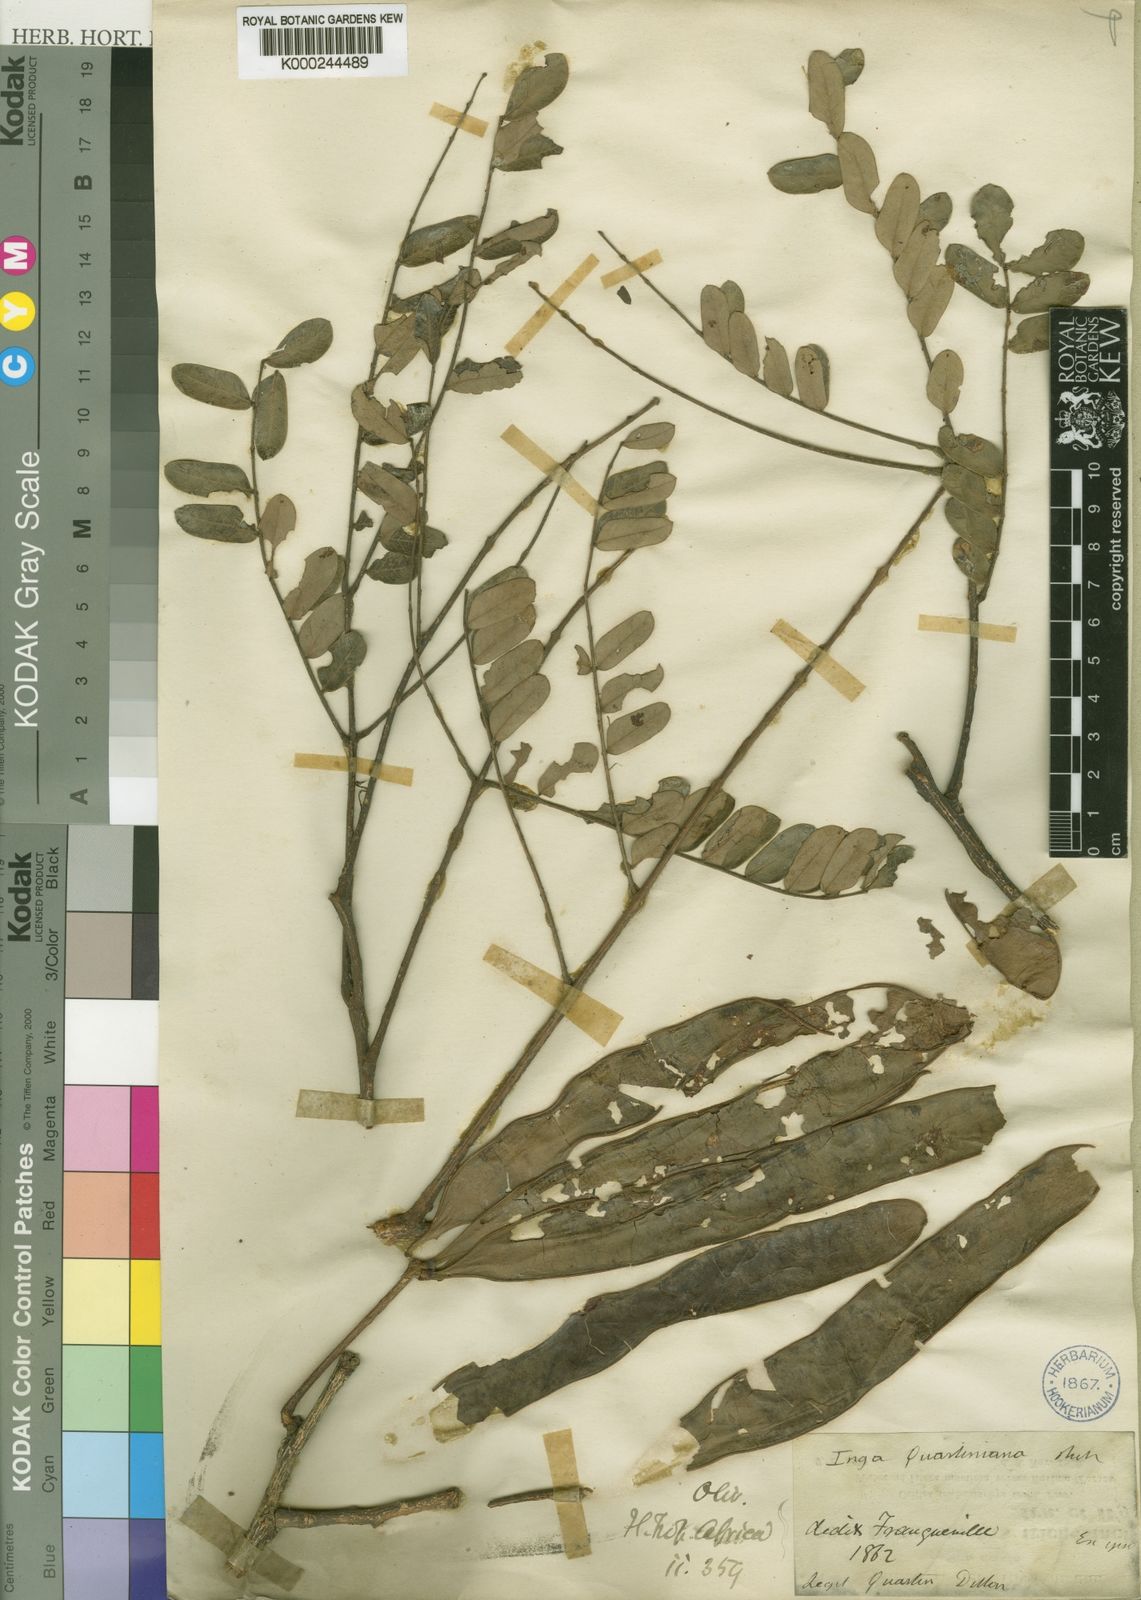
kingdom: Plantae
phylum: Tracheophyta
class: Magnoliopsida
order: Fabales
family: Fabaceae
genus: Albizia
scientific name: Albizia malacophylla
